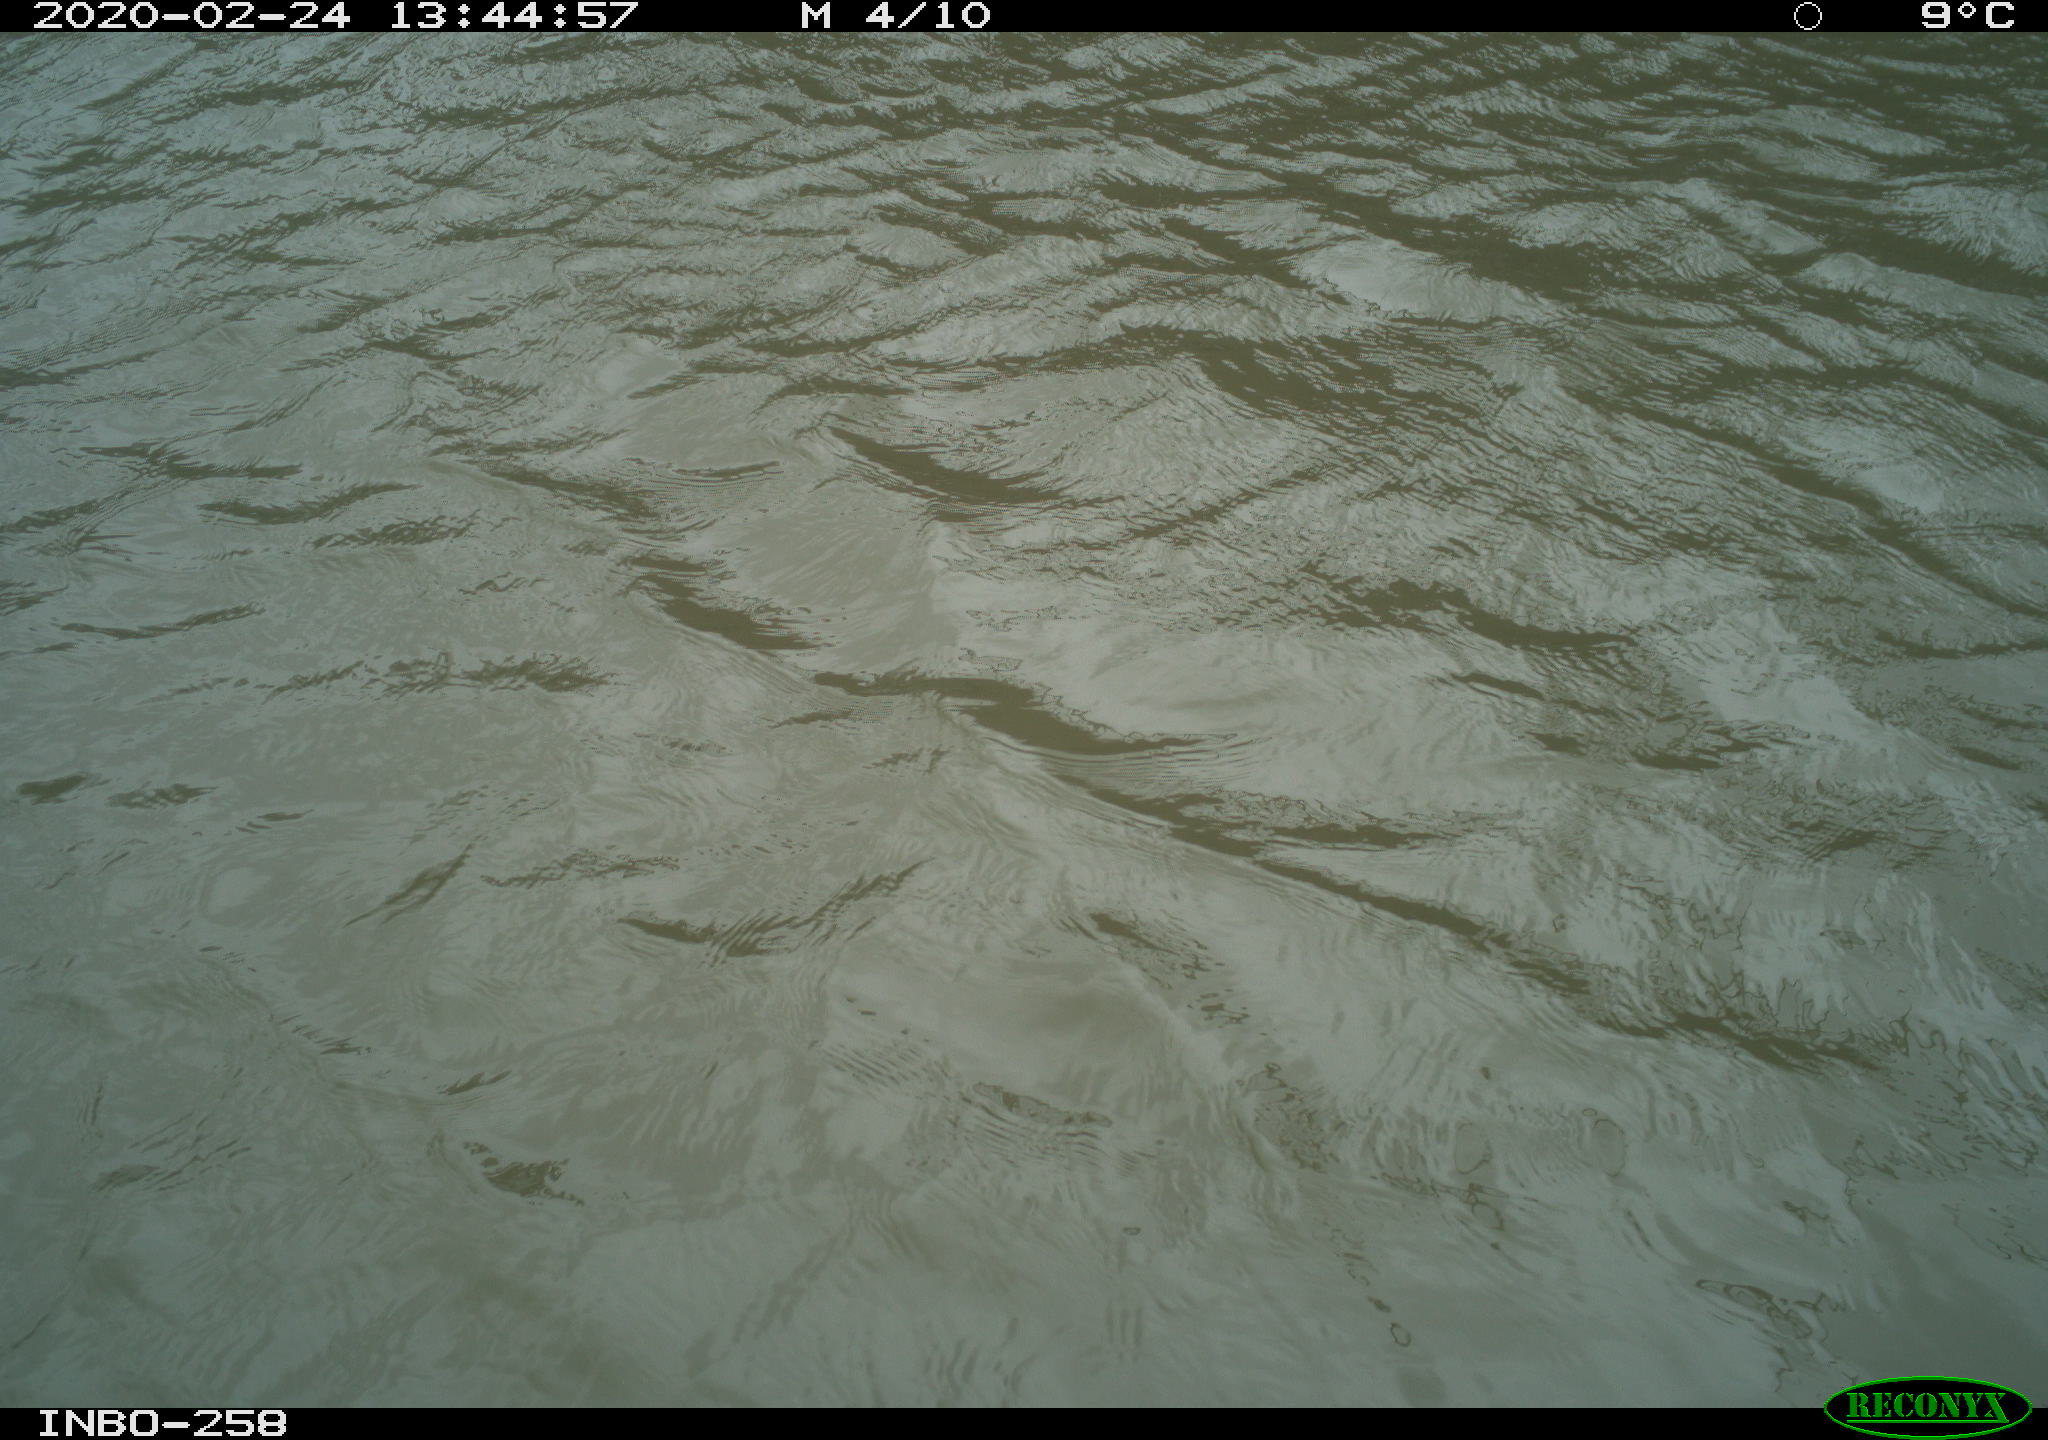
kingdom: Animalia
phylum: Chordata
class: Aves
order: Gruiformes
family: Rallidae
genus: Gallinula
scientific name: Gallinula chloropus
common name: Common moorhen
